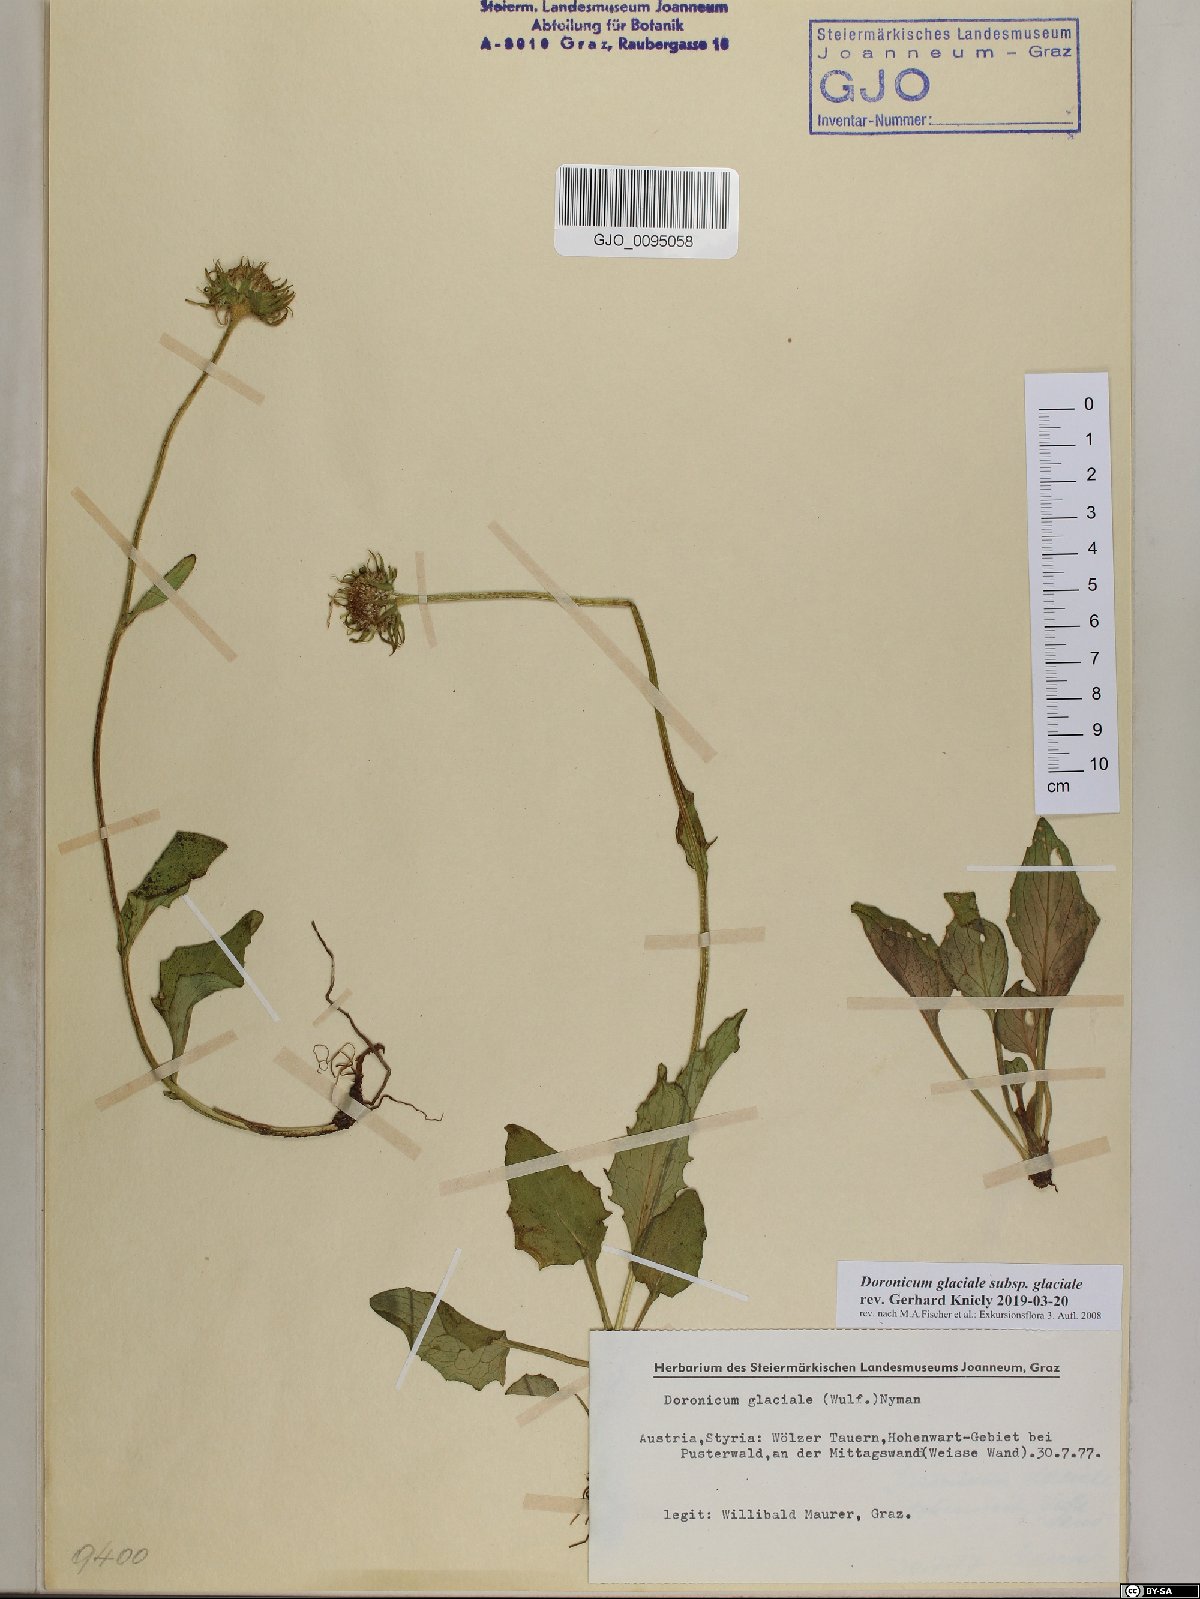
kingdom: Plantae
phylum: Tracheophyta
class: Magnoliopsida
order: Asterales
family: Asteraceae
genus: Doronicum
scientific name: Doronicum glaciale
